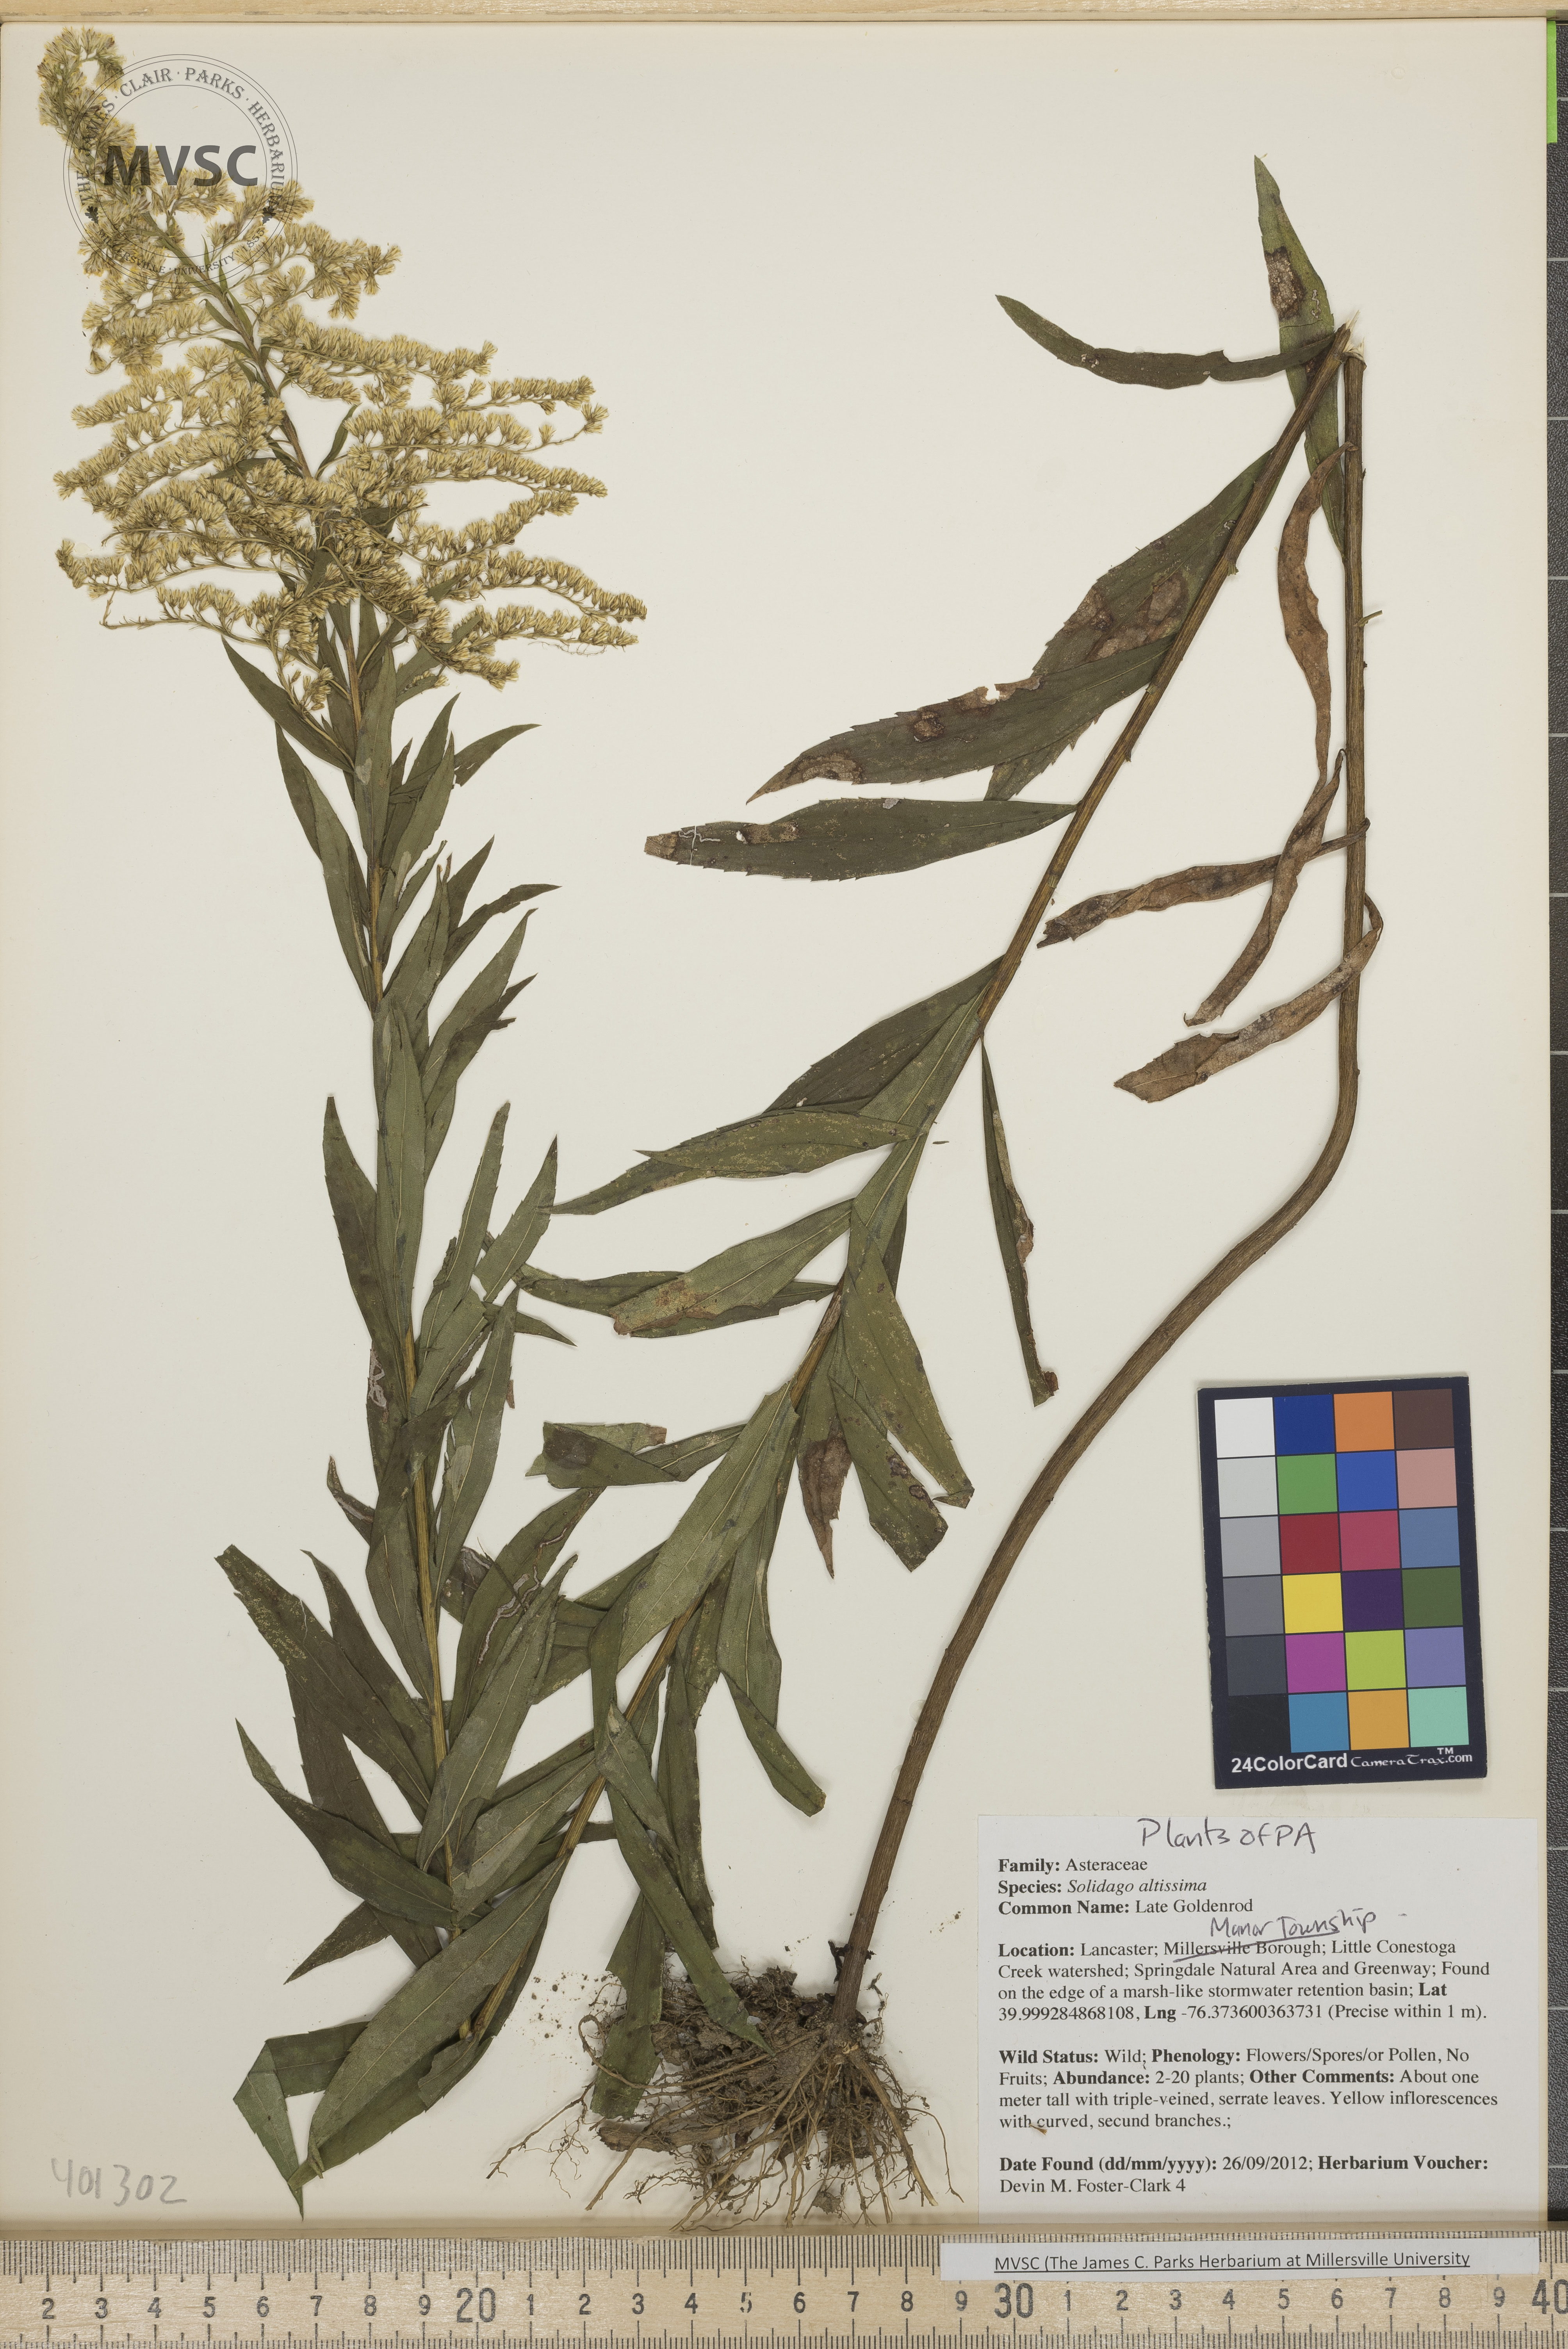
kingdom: Plantae
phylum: Tracheophyta
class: Magnoliopsida
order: Asterales
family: Asteraceae
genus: Solidago
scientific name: Solidago altissima
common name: Late Goldenrod
